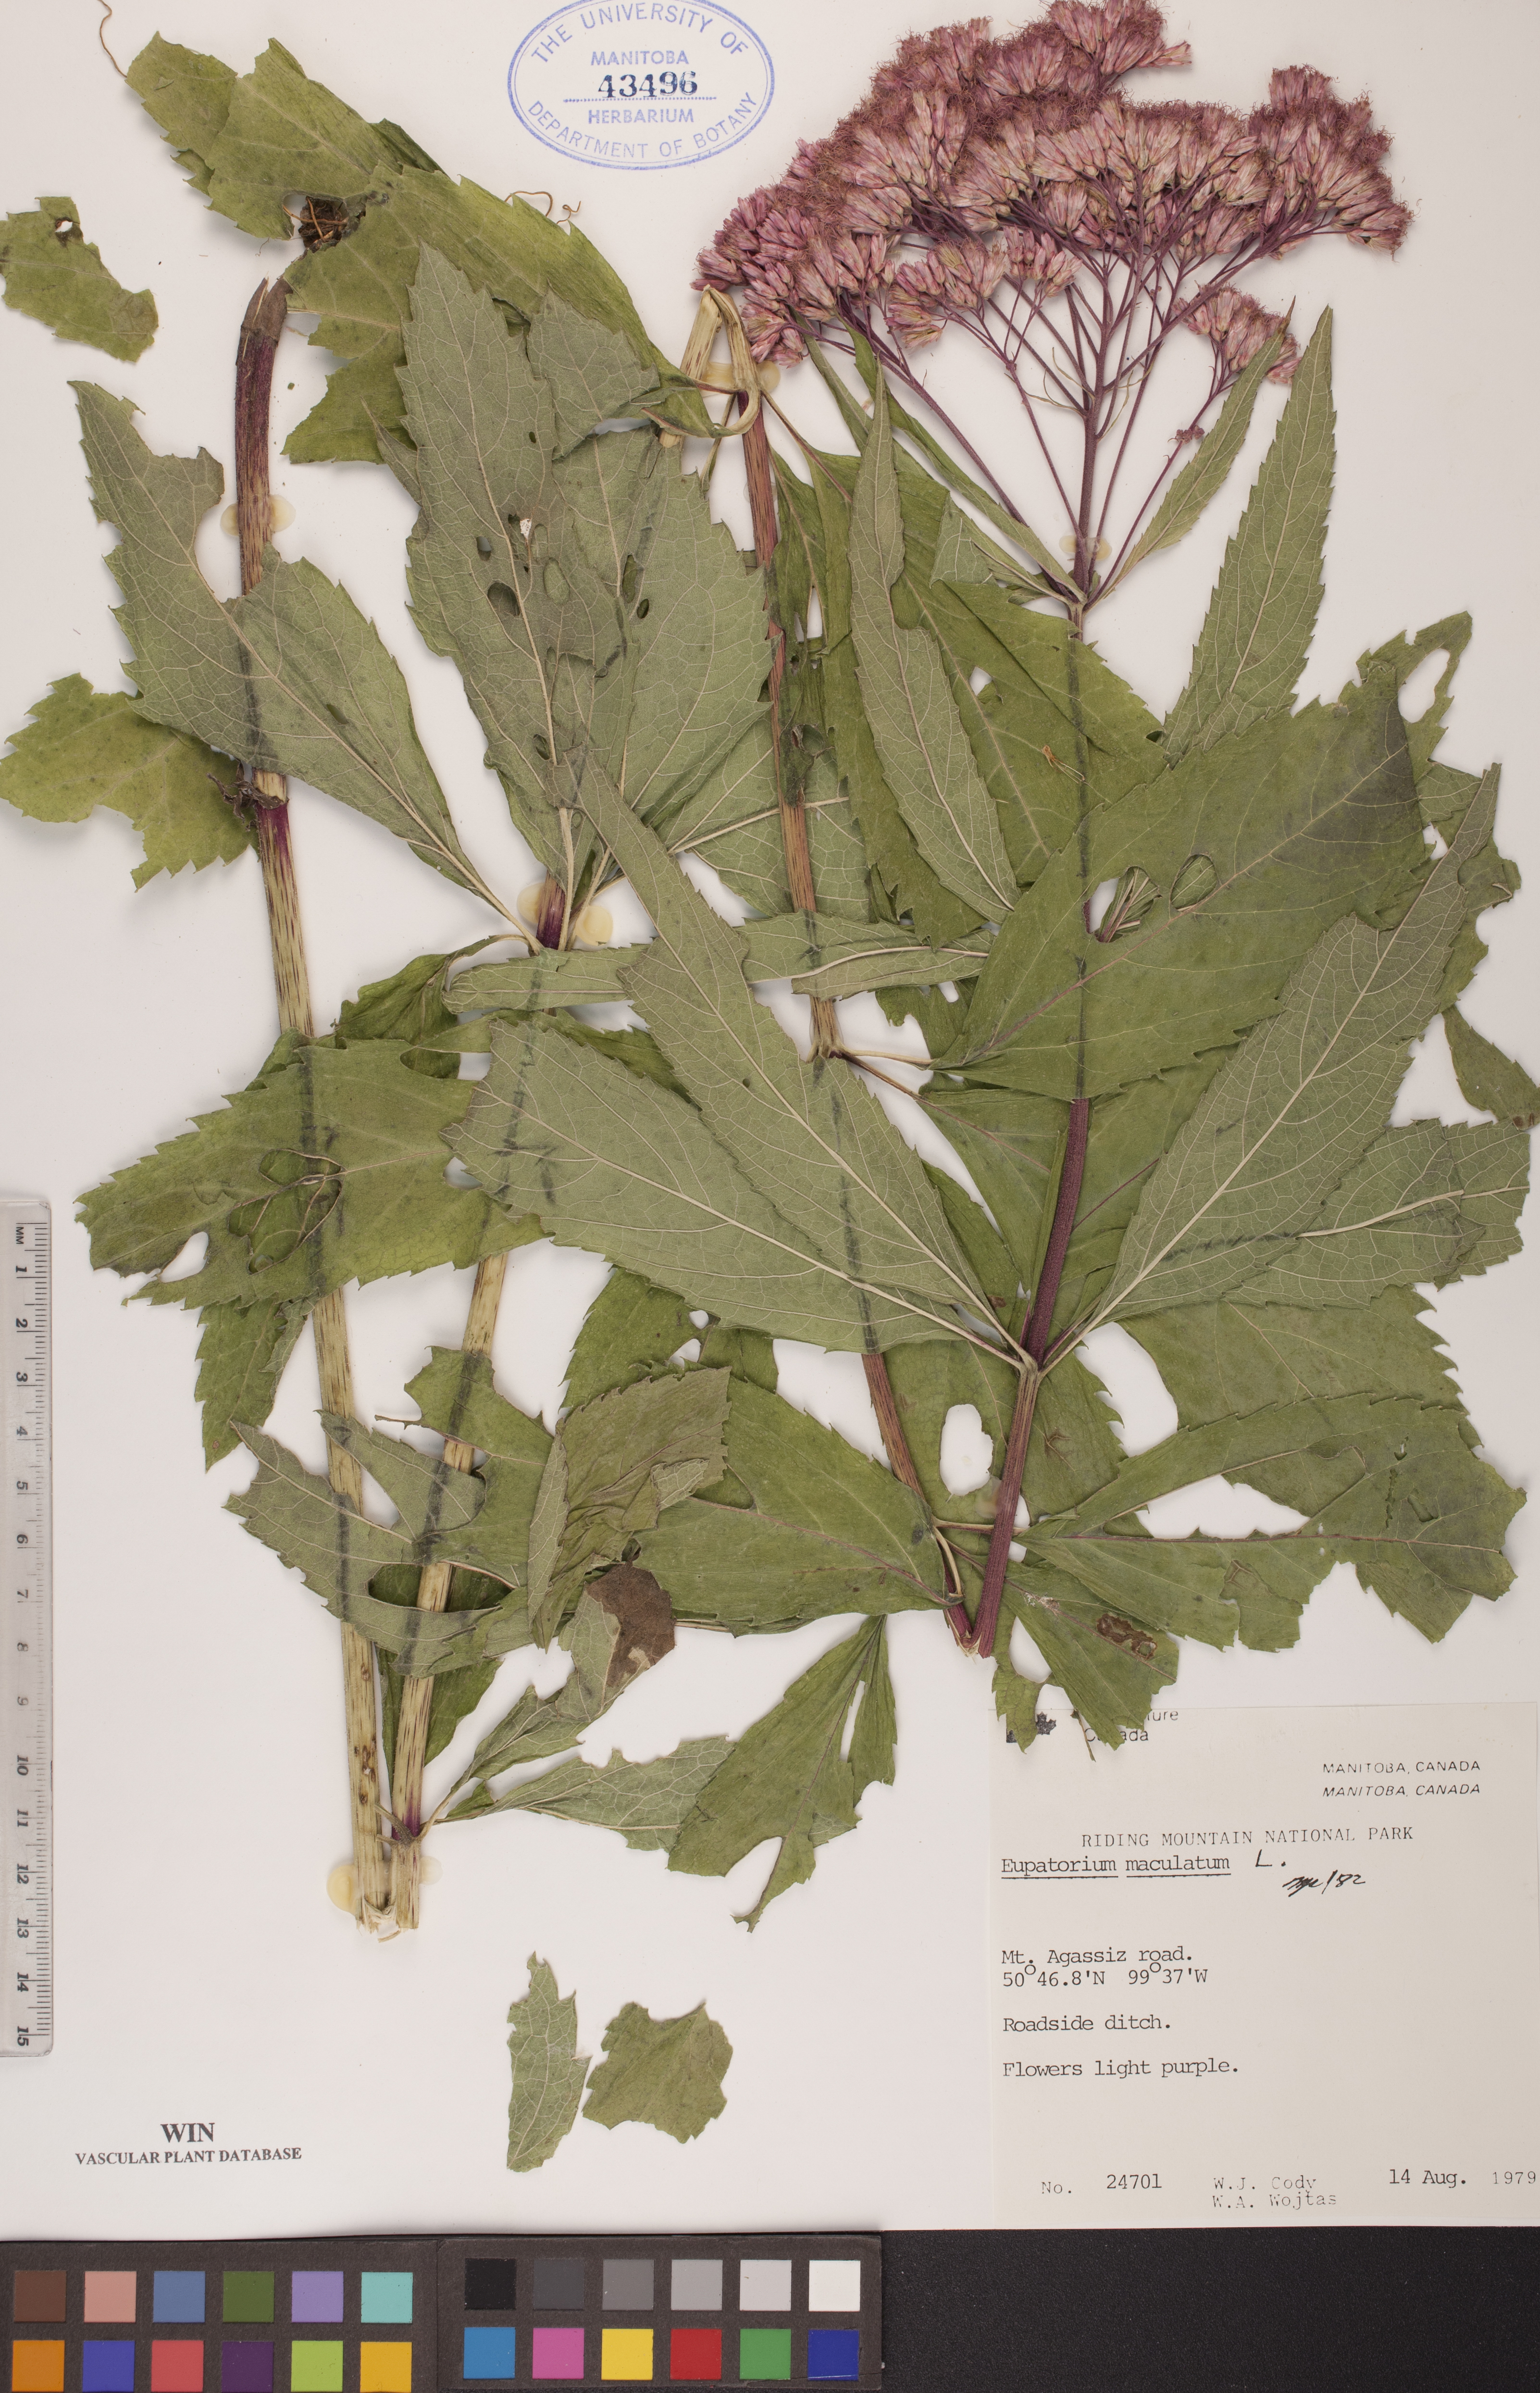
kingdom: Plantae
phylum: Tracheophyta
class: Magnoliopsida
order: Asterales
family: Asteraceae
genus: Eutrochium
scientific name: Eutrochium maculatum
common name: Spotted joe pye weed
